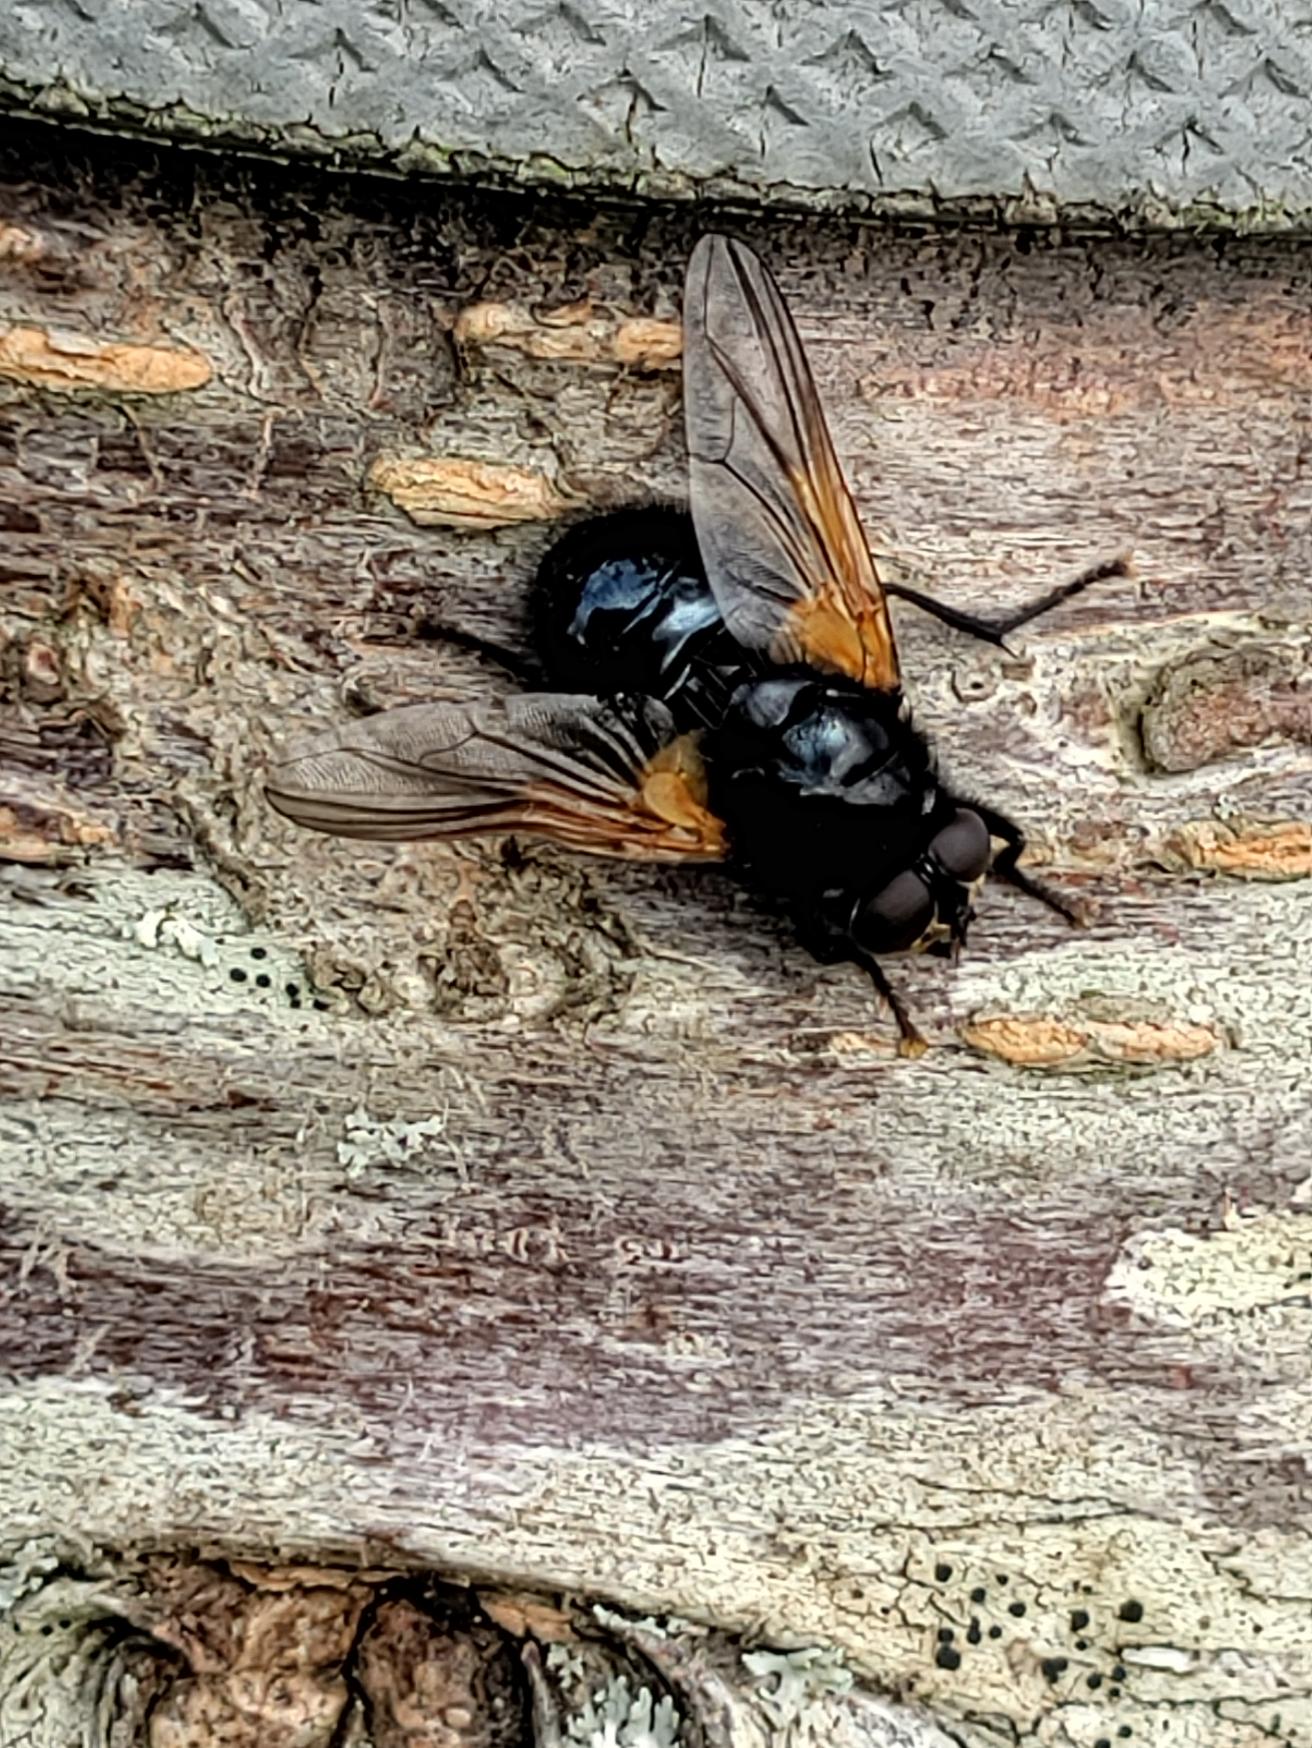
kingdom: Animalia
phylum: Arthropoda
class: Insecta
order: Diptera
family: Muscidae
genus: Mesembrina
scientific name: Mesembrina meridiana
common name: Gulvinget flue
